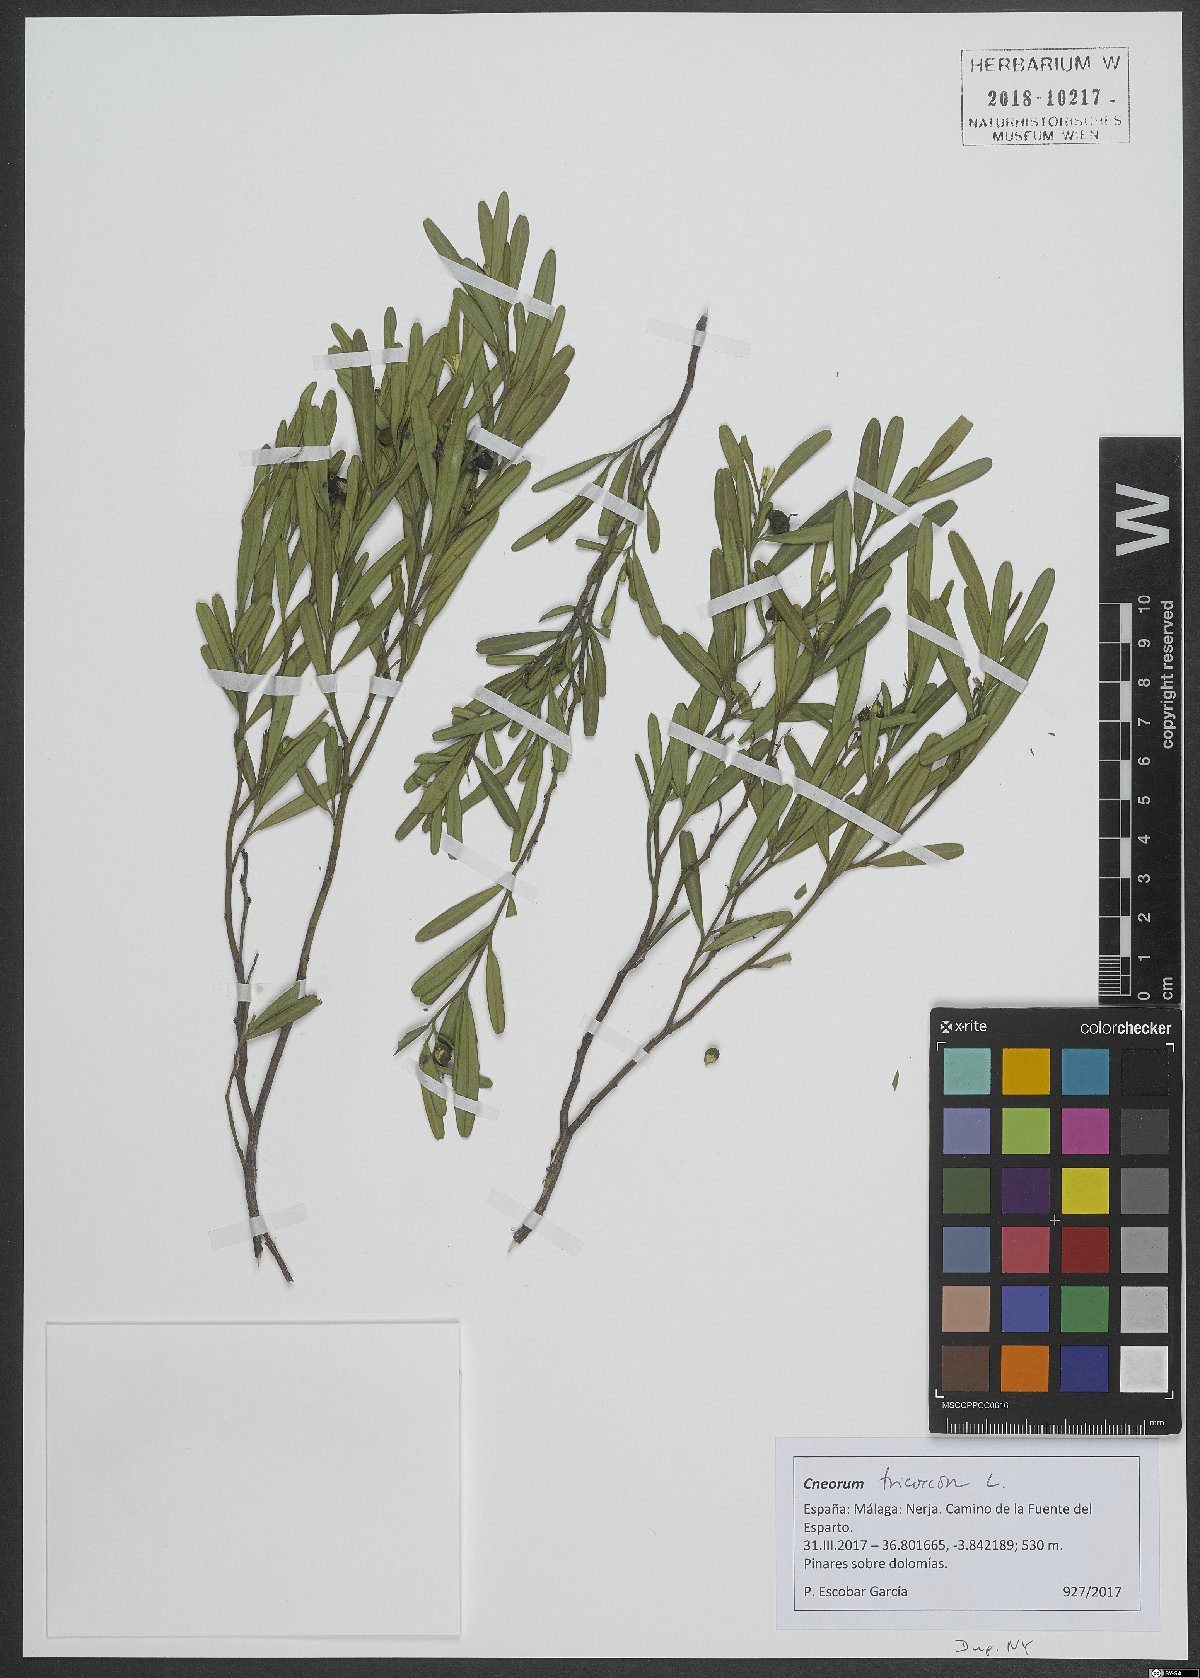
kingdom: Plantae
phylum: Tracheophyta
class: Magnoliopsida
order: Sapindales
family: Rutaceae
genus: Cneorum
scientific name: Cneorum tricoccon
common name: Spurge olive
